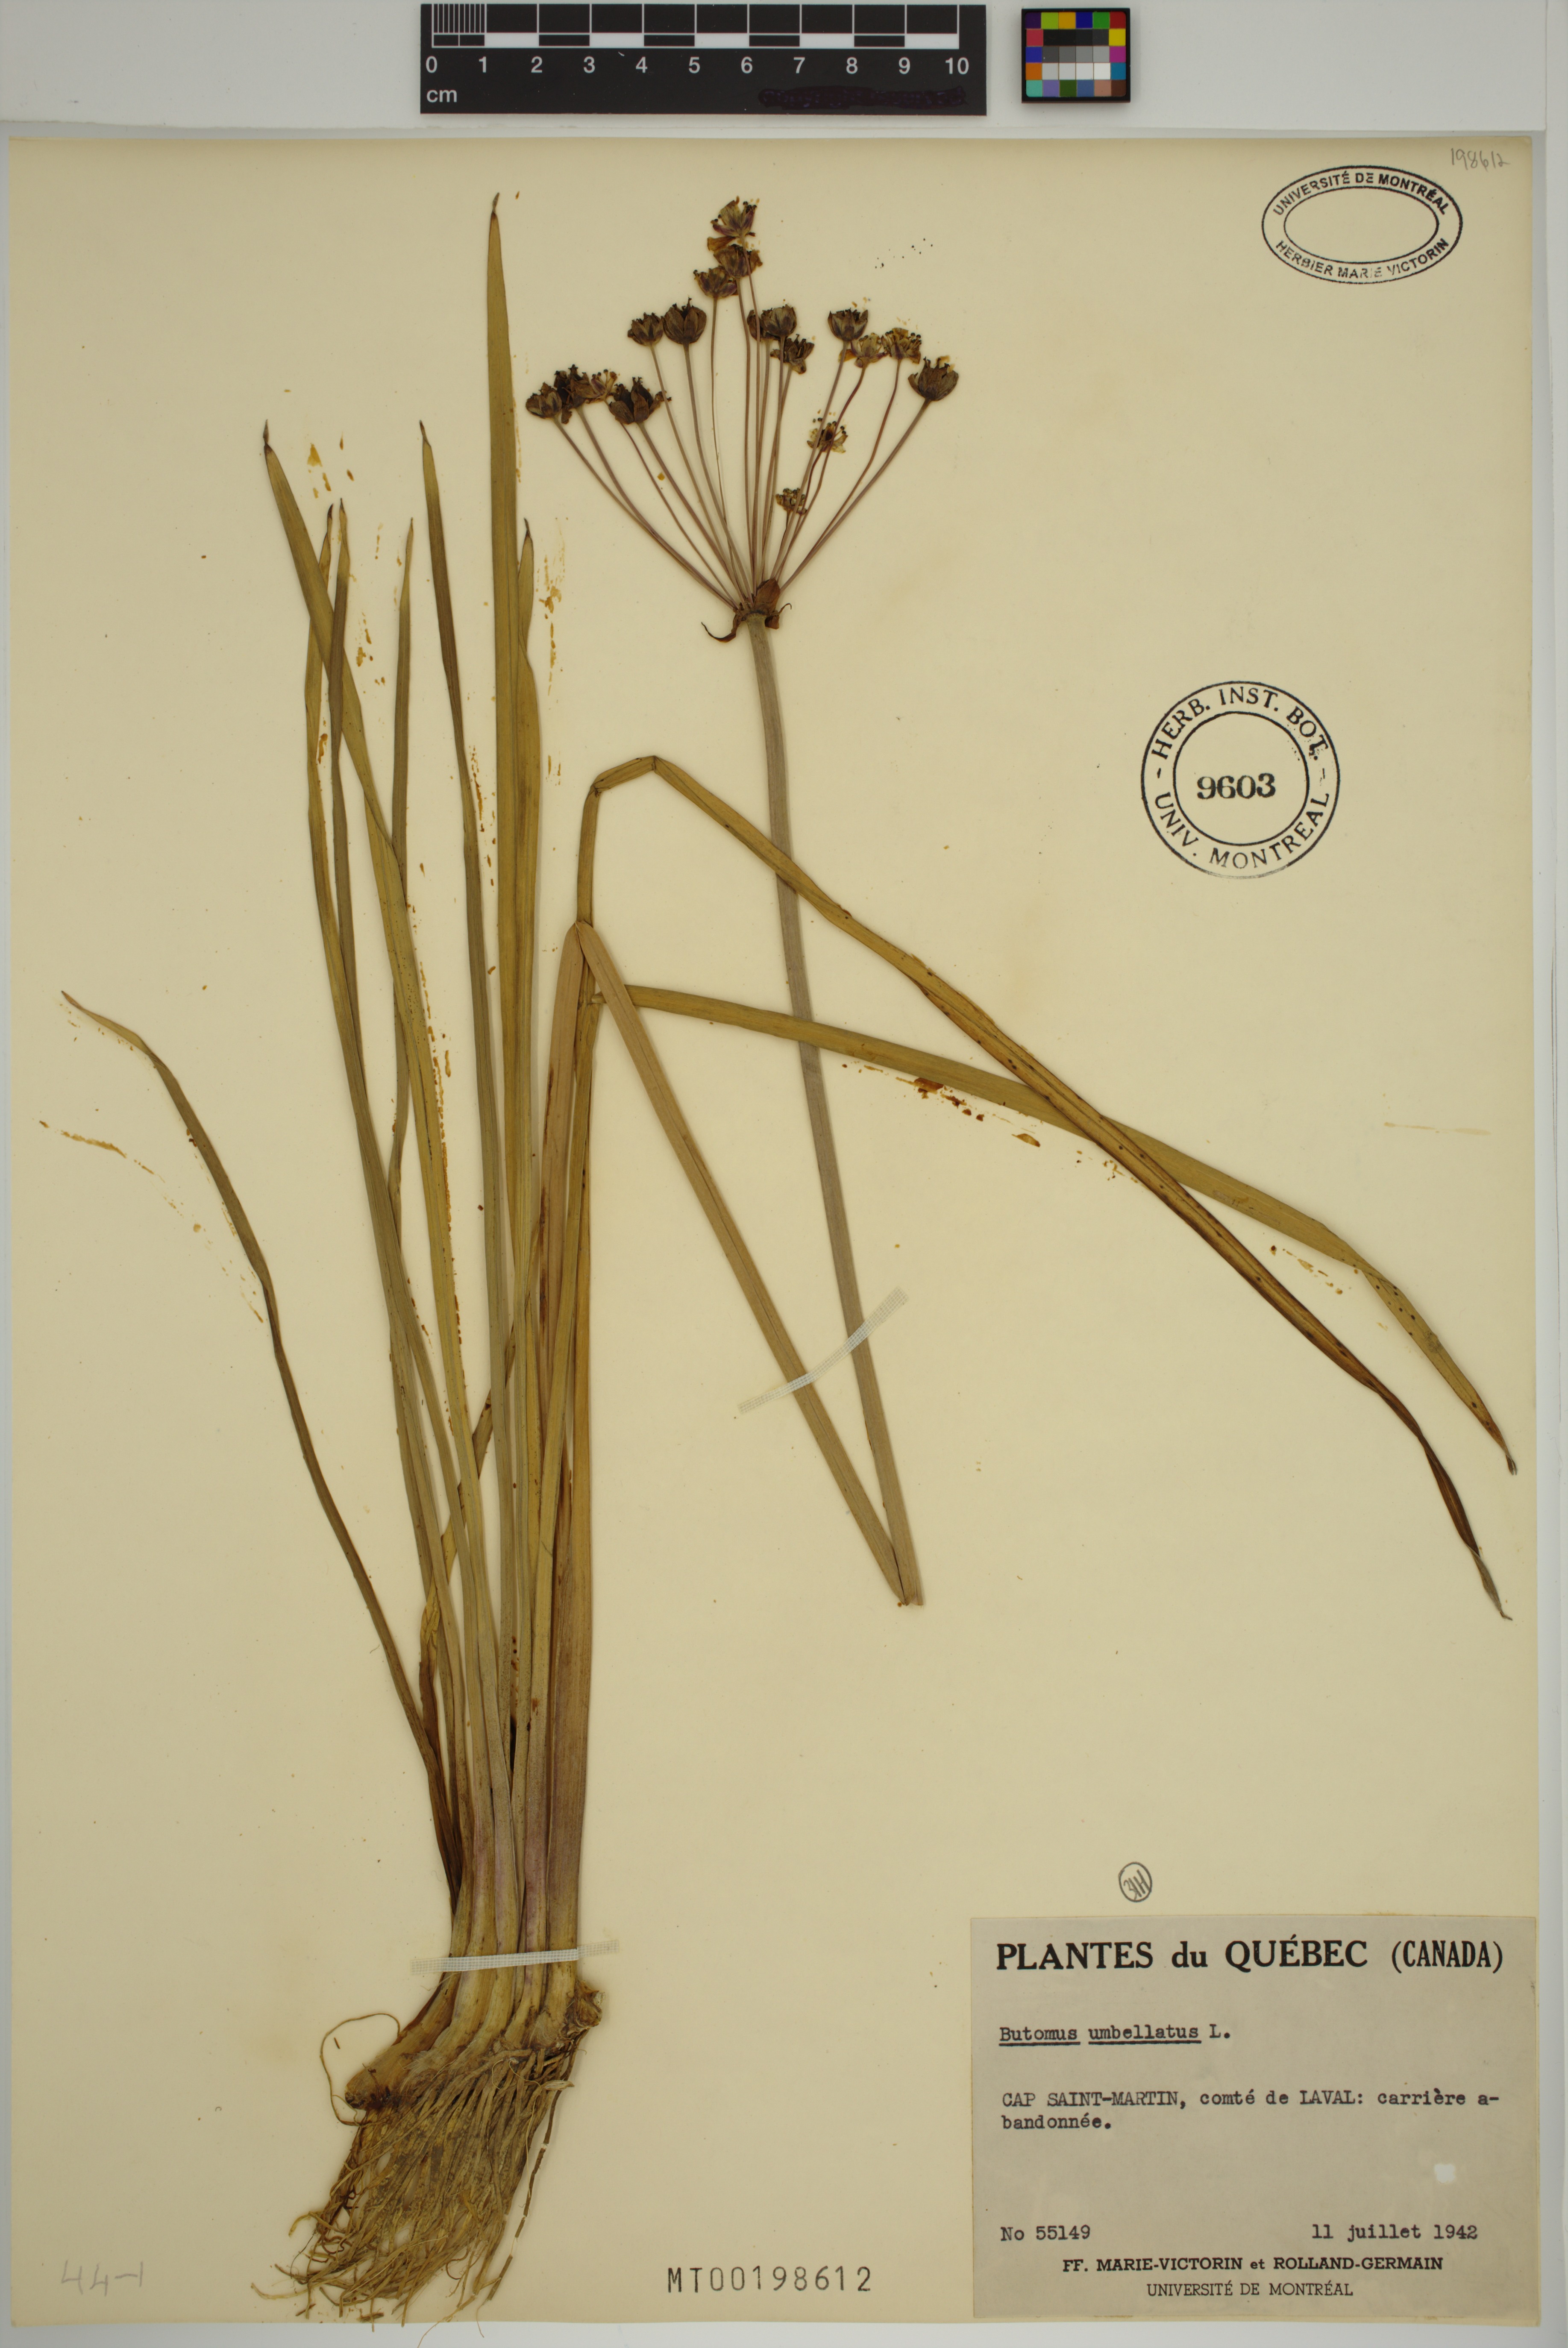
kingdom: Plantae
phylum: Tracheophyta
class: Liliopsida
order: Alismatales
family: Butomaceae
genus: Butomus
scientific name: Butomus umbellatus
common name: Flowering-rush
